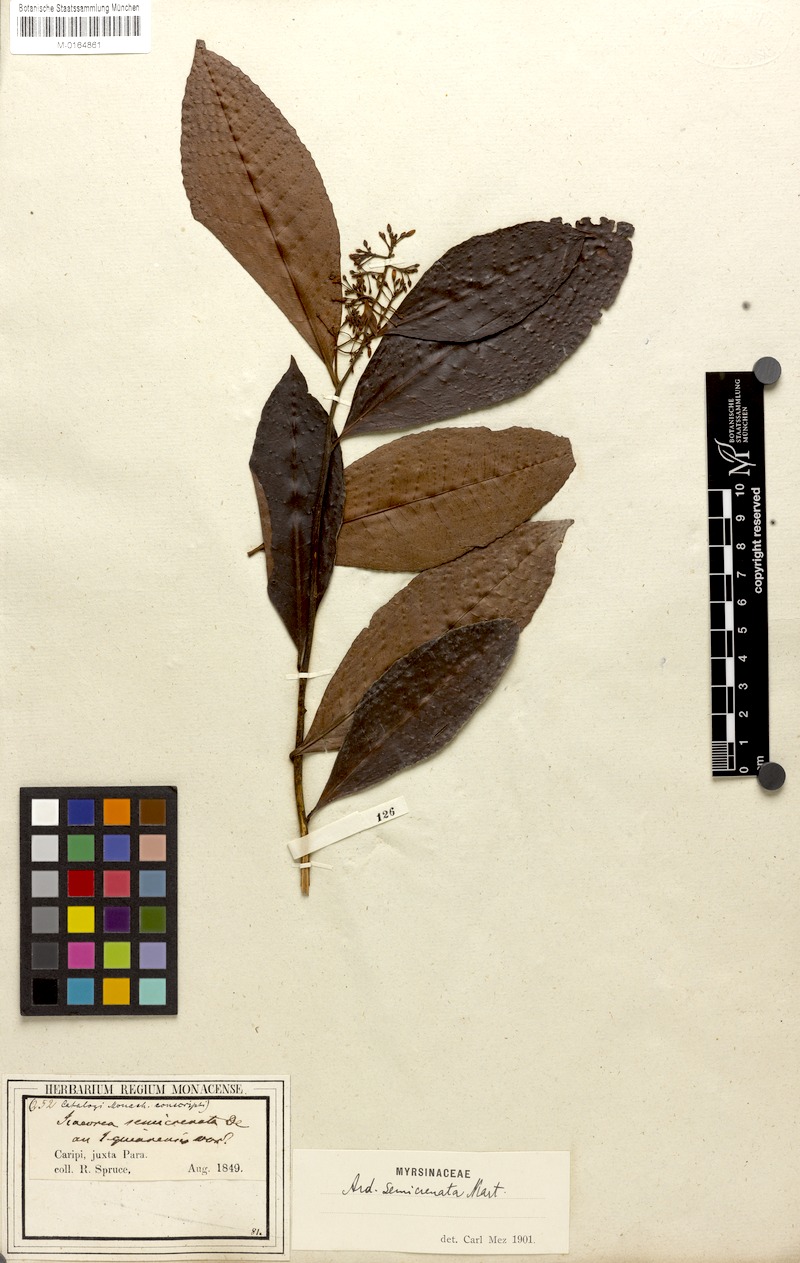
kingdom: Plantae
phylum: Tracheophyta
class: Magnoliopsida
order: Ericales
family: Primulaceae
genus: Ardisia
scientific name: Ardisia guianensis
